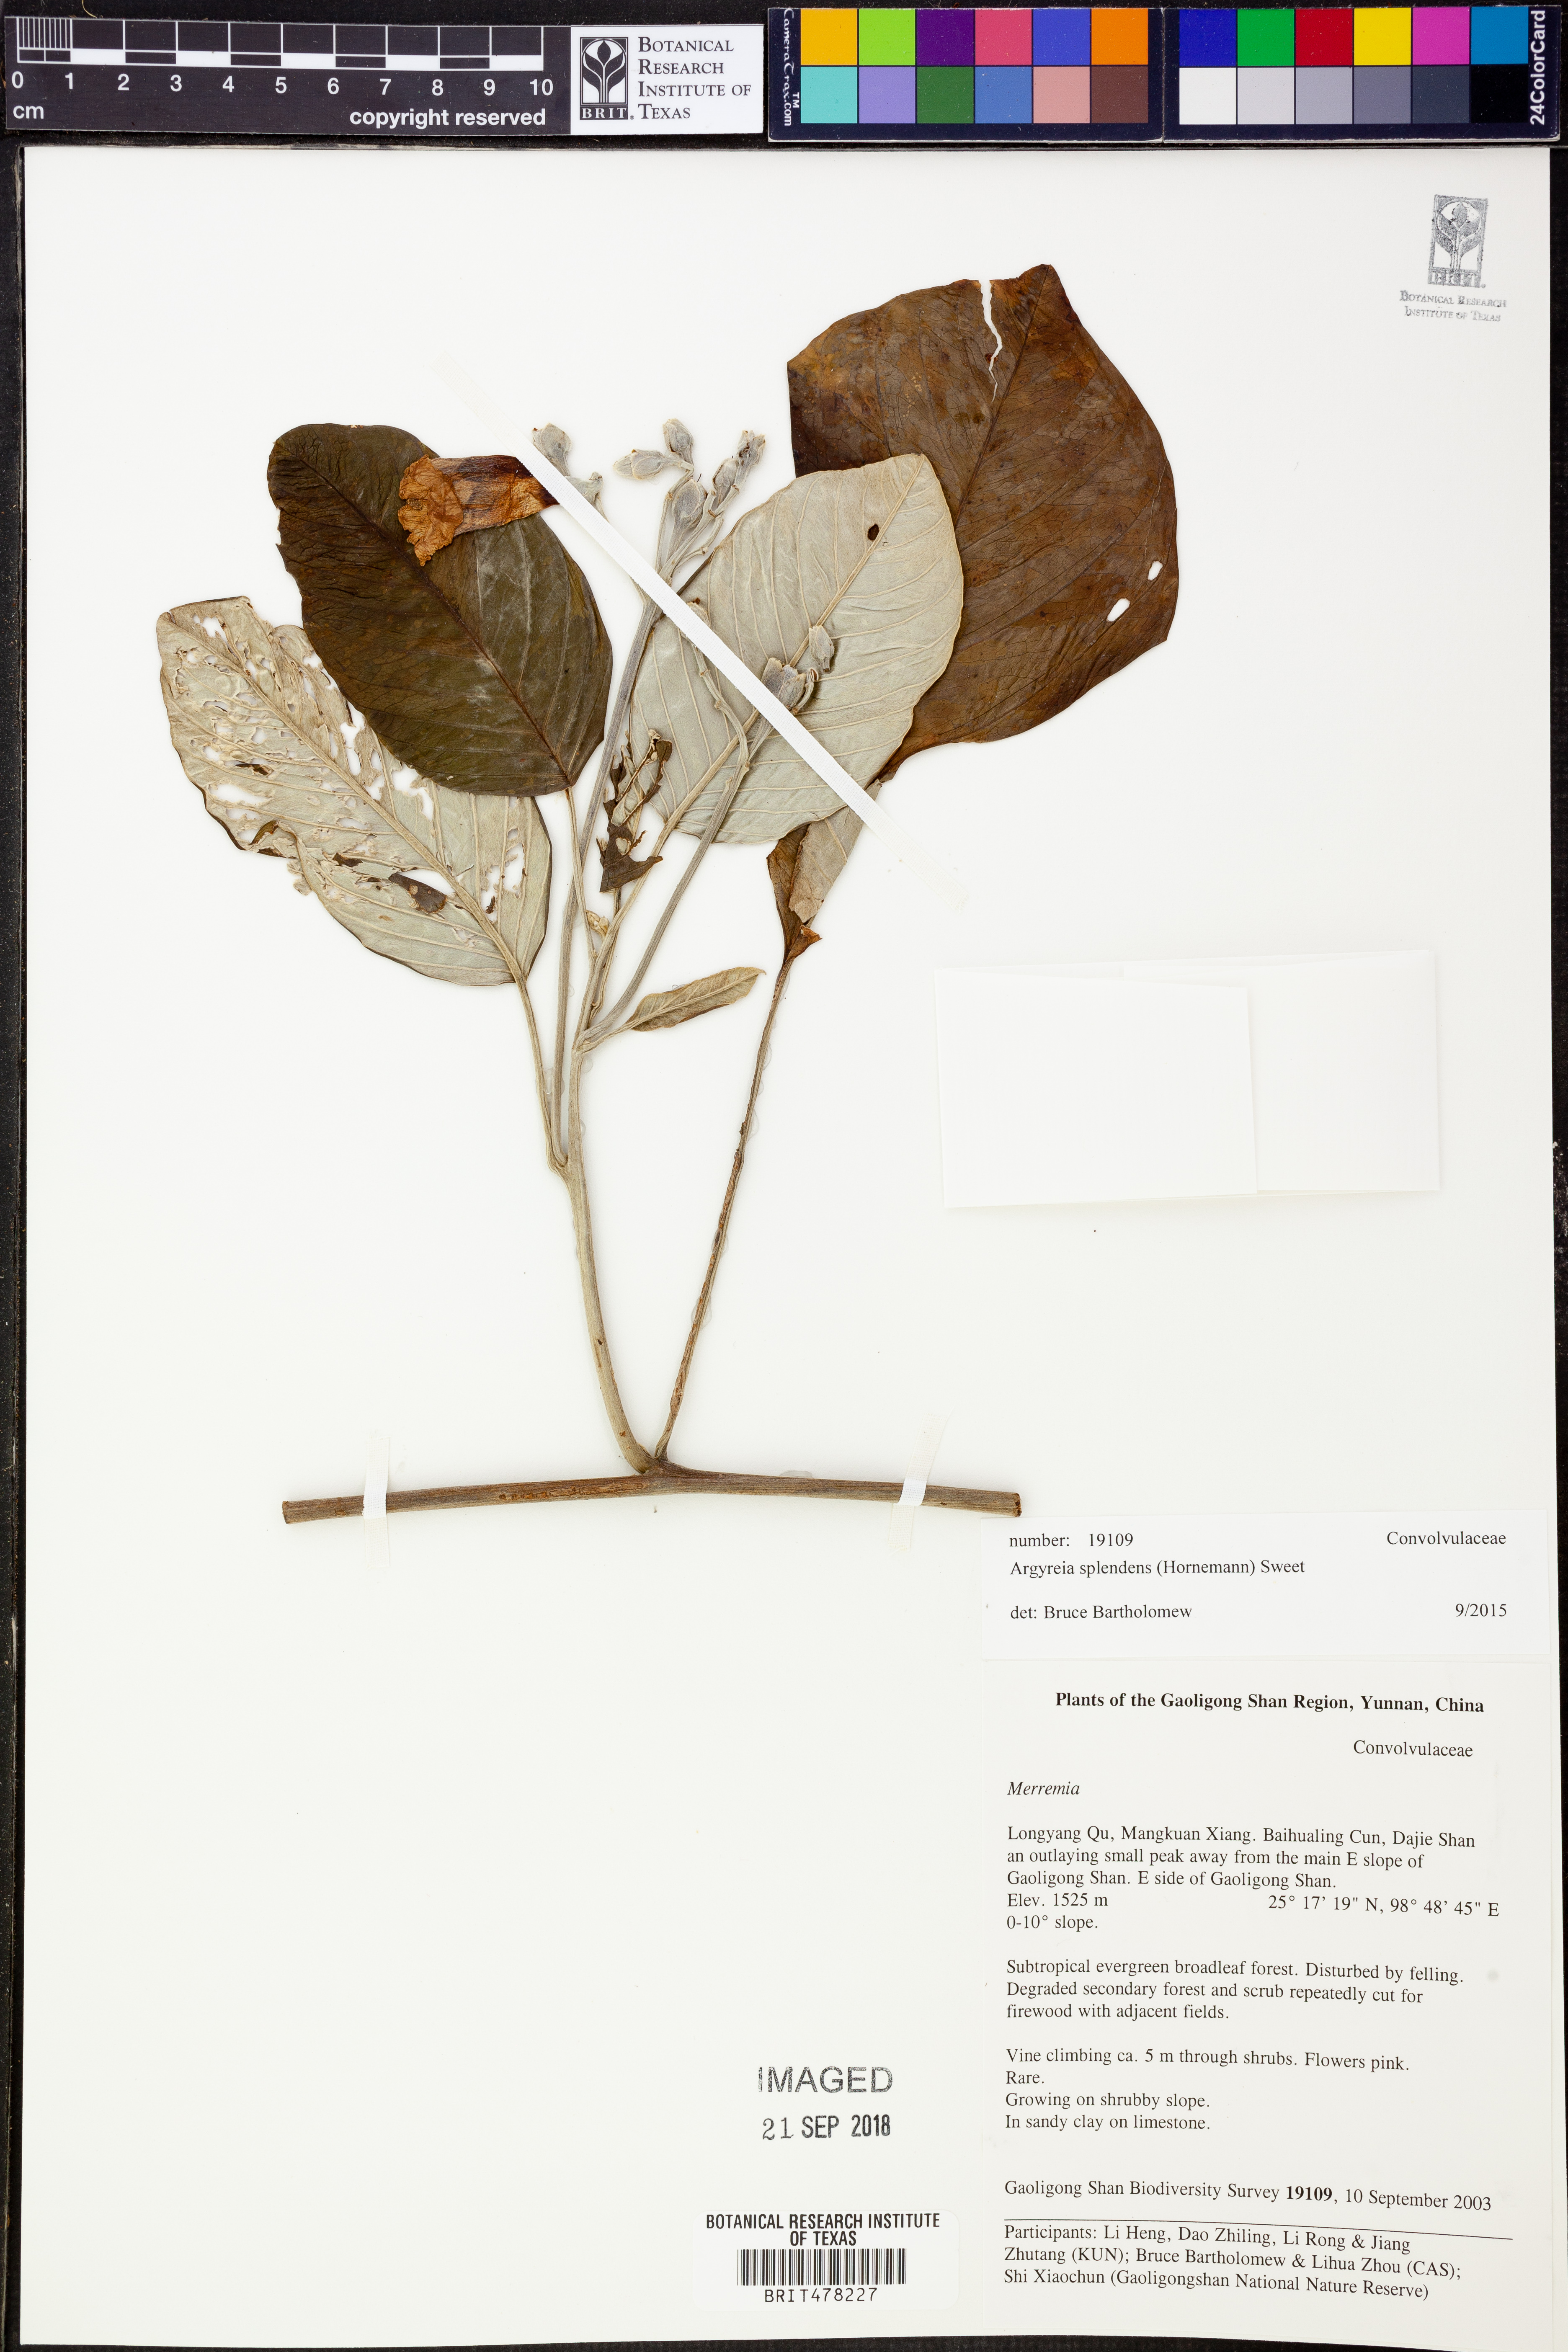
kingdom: Plantae
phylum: Tracheophyta
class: Magnoliopsida
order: Solanales
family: Convolvulaceae
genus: Argyreia
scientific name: Argyreia splendens
